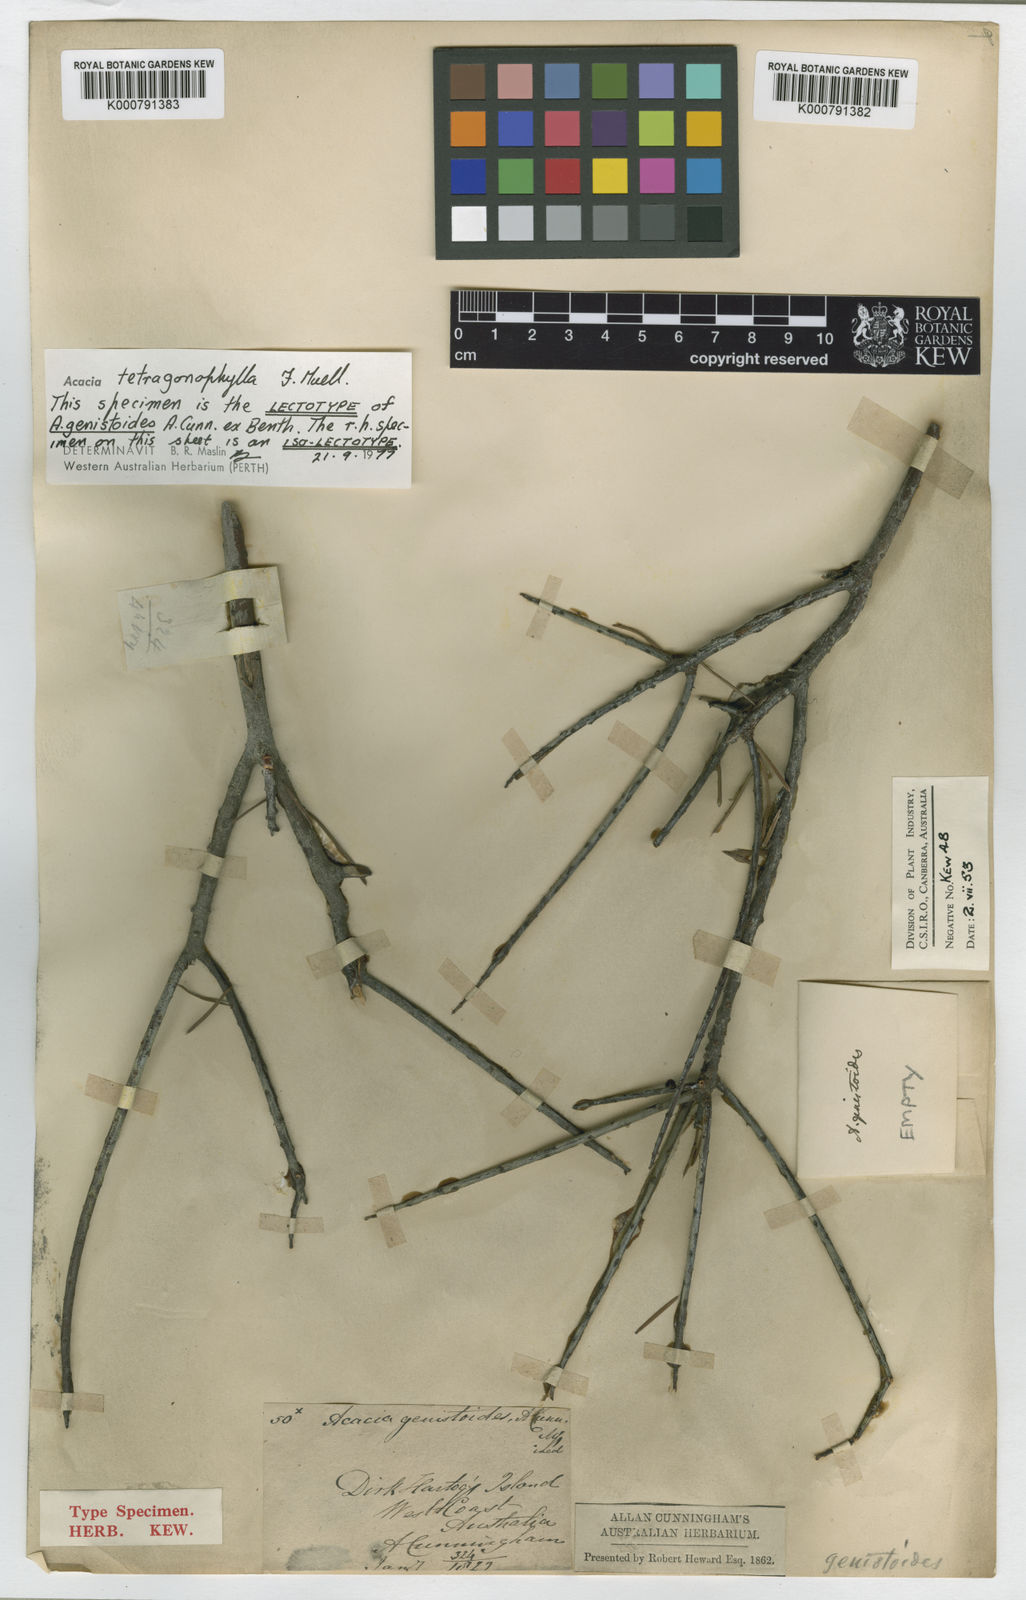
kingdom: Plantae
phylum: Tracheophyta
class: Magnoliopsida
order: Fabales
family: Fabaceae
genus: Acacia
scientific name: Acacia tetragonophylla
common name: Dead finish
